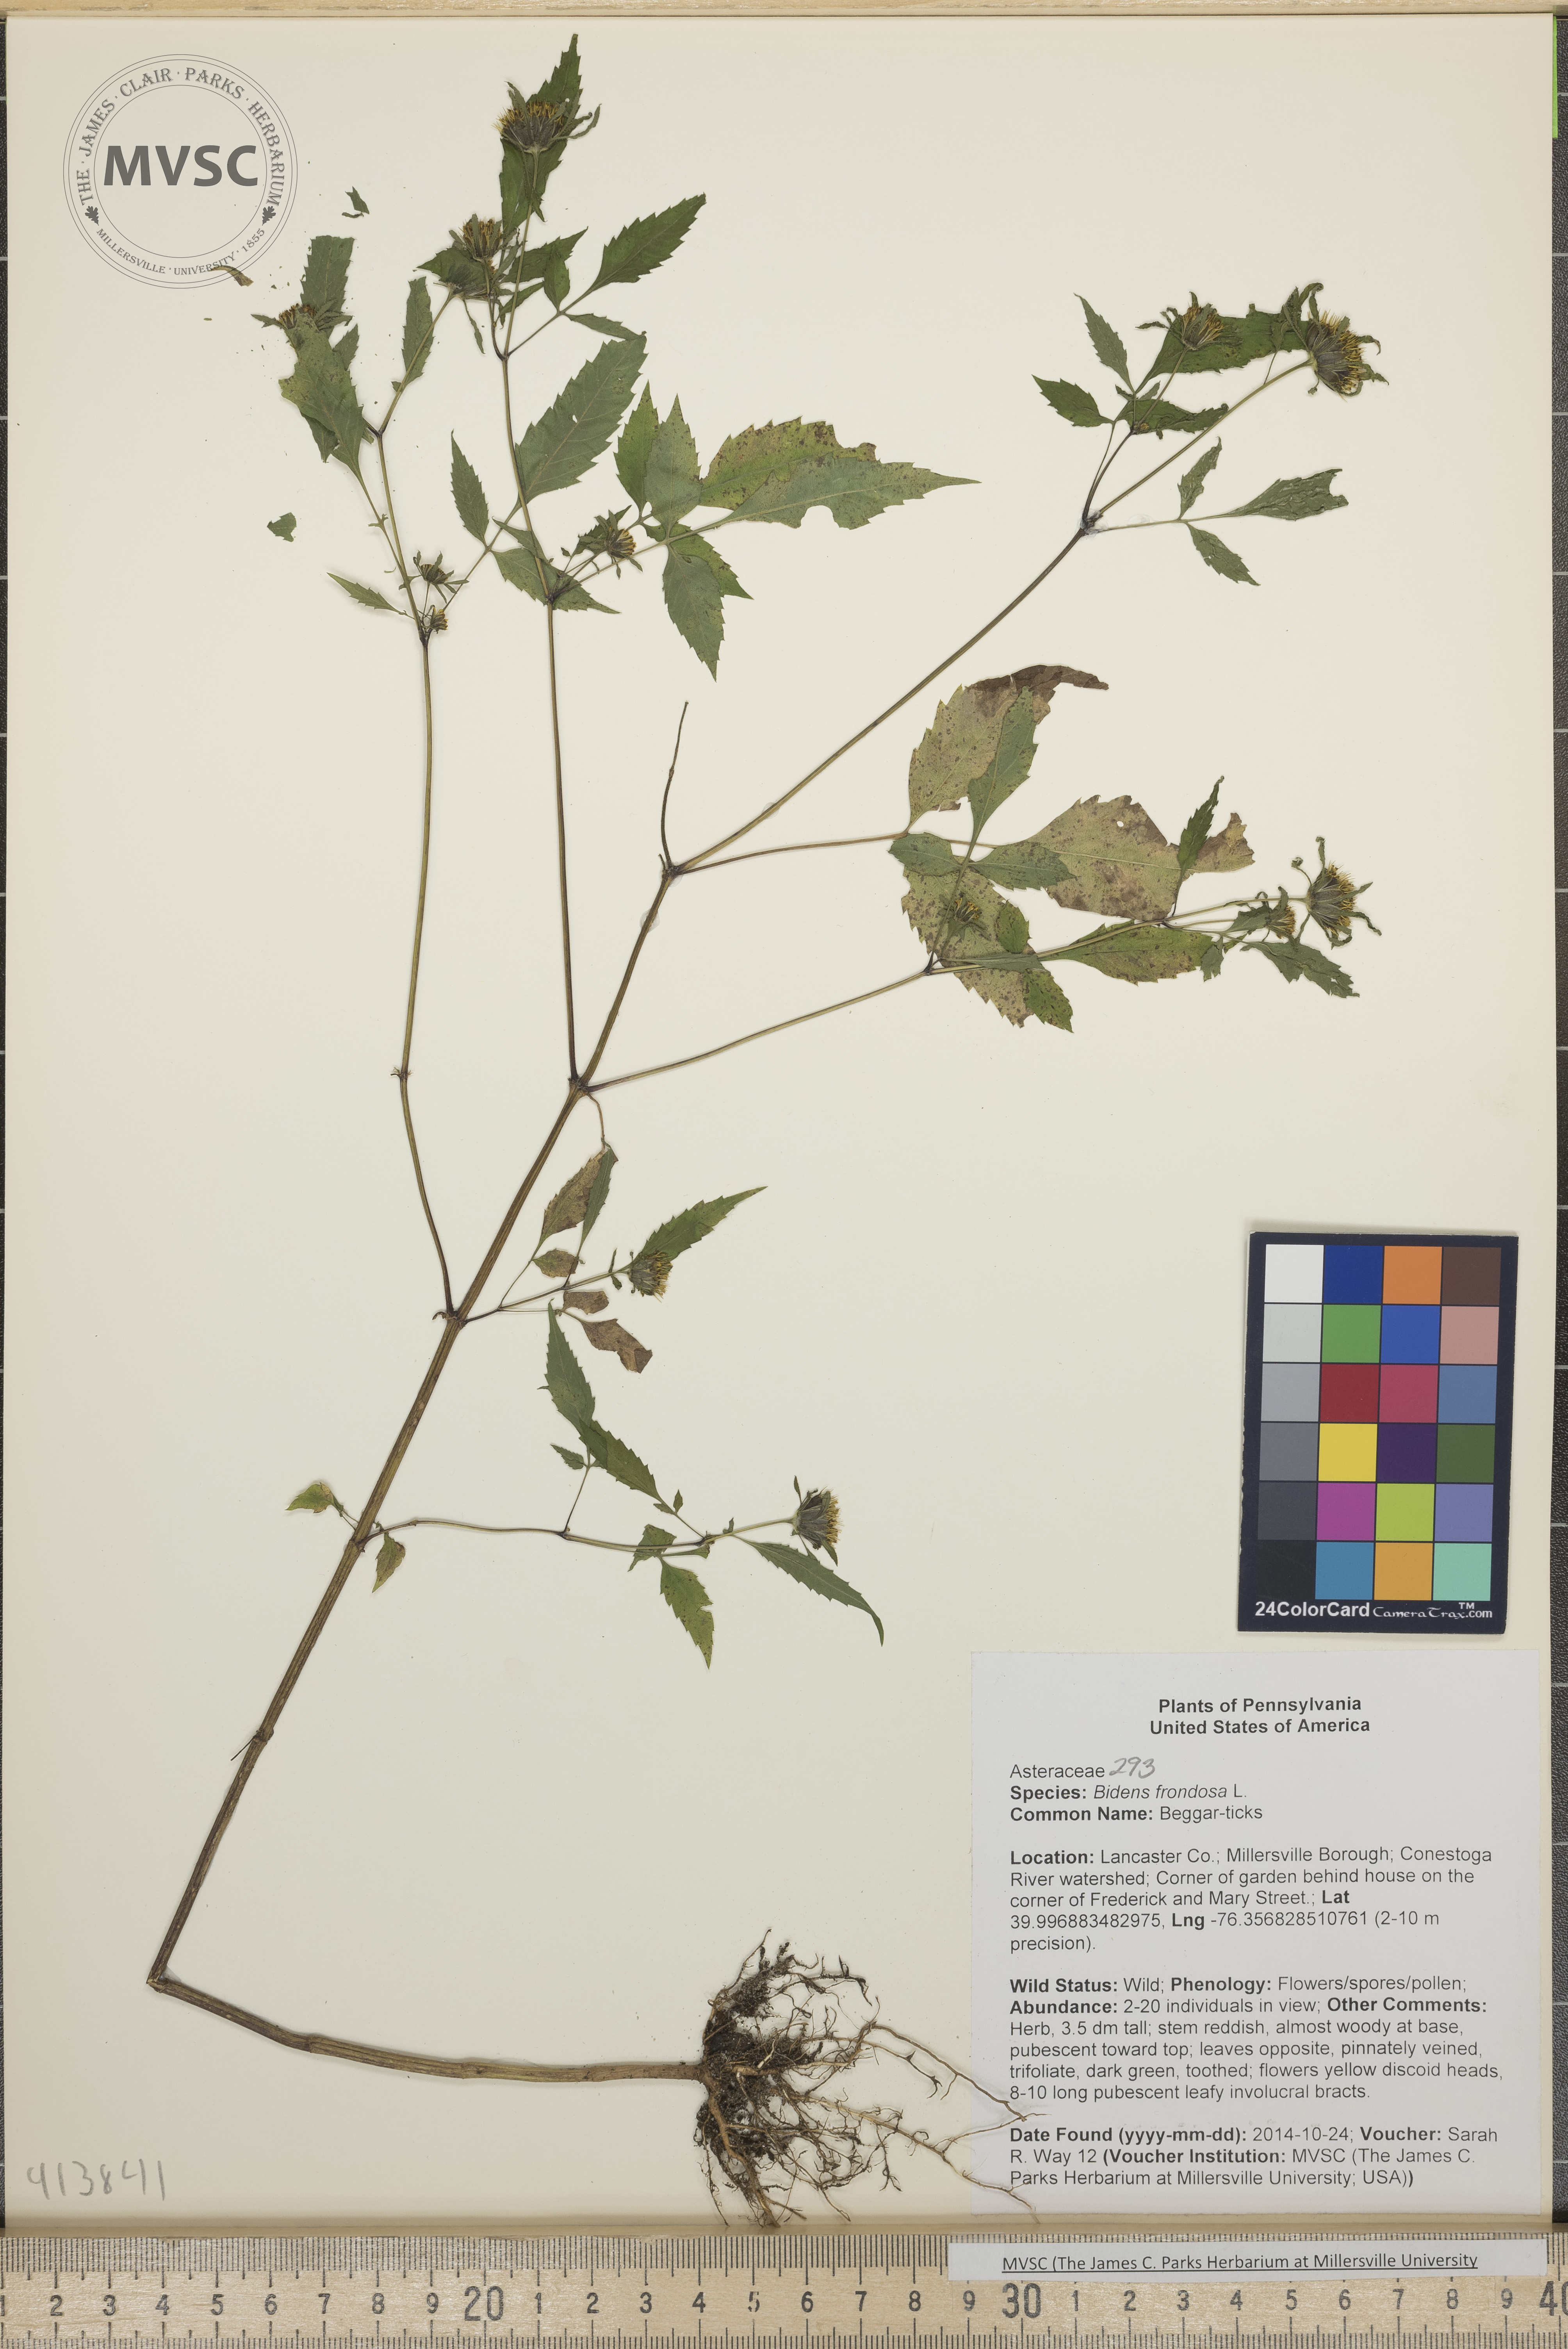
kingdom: Plantae
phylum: Tracheophyta
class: Magnoliopsida
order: Asterales
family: Asteraceae
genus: Bidens
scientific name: Bidens frondosa
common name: Beggar-ticks
